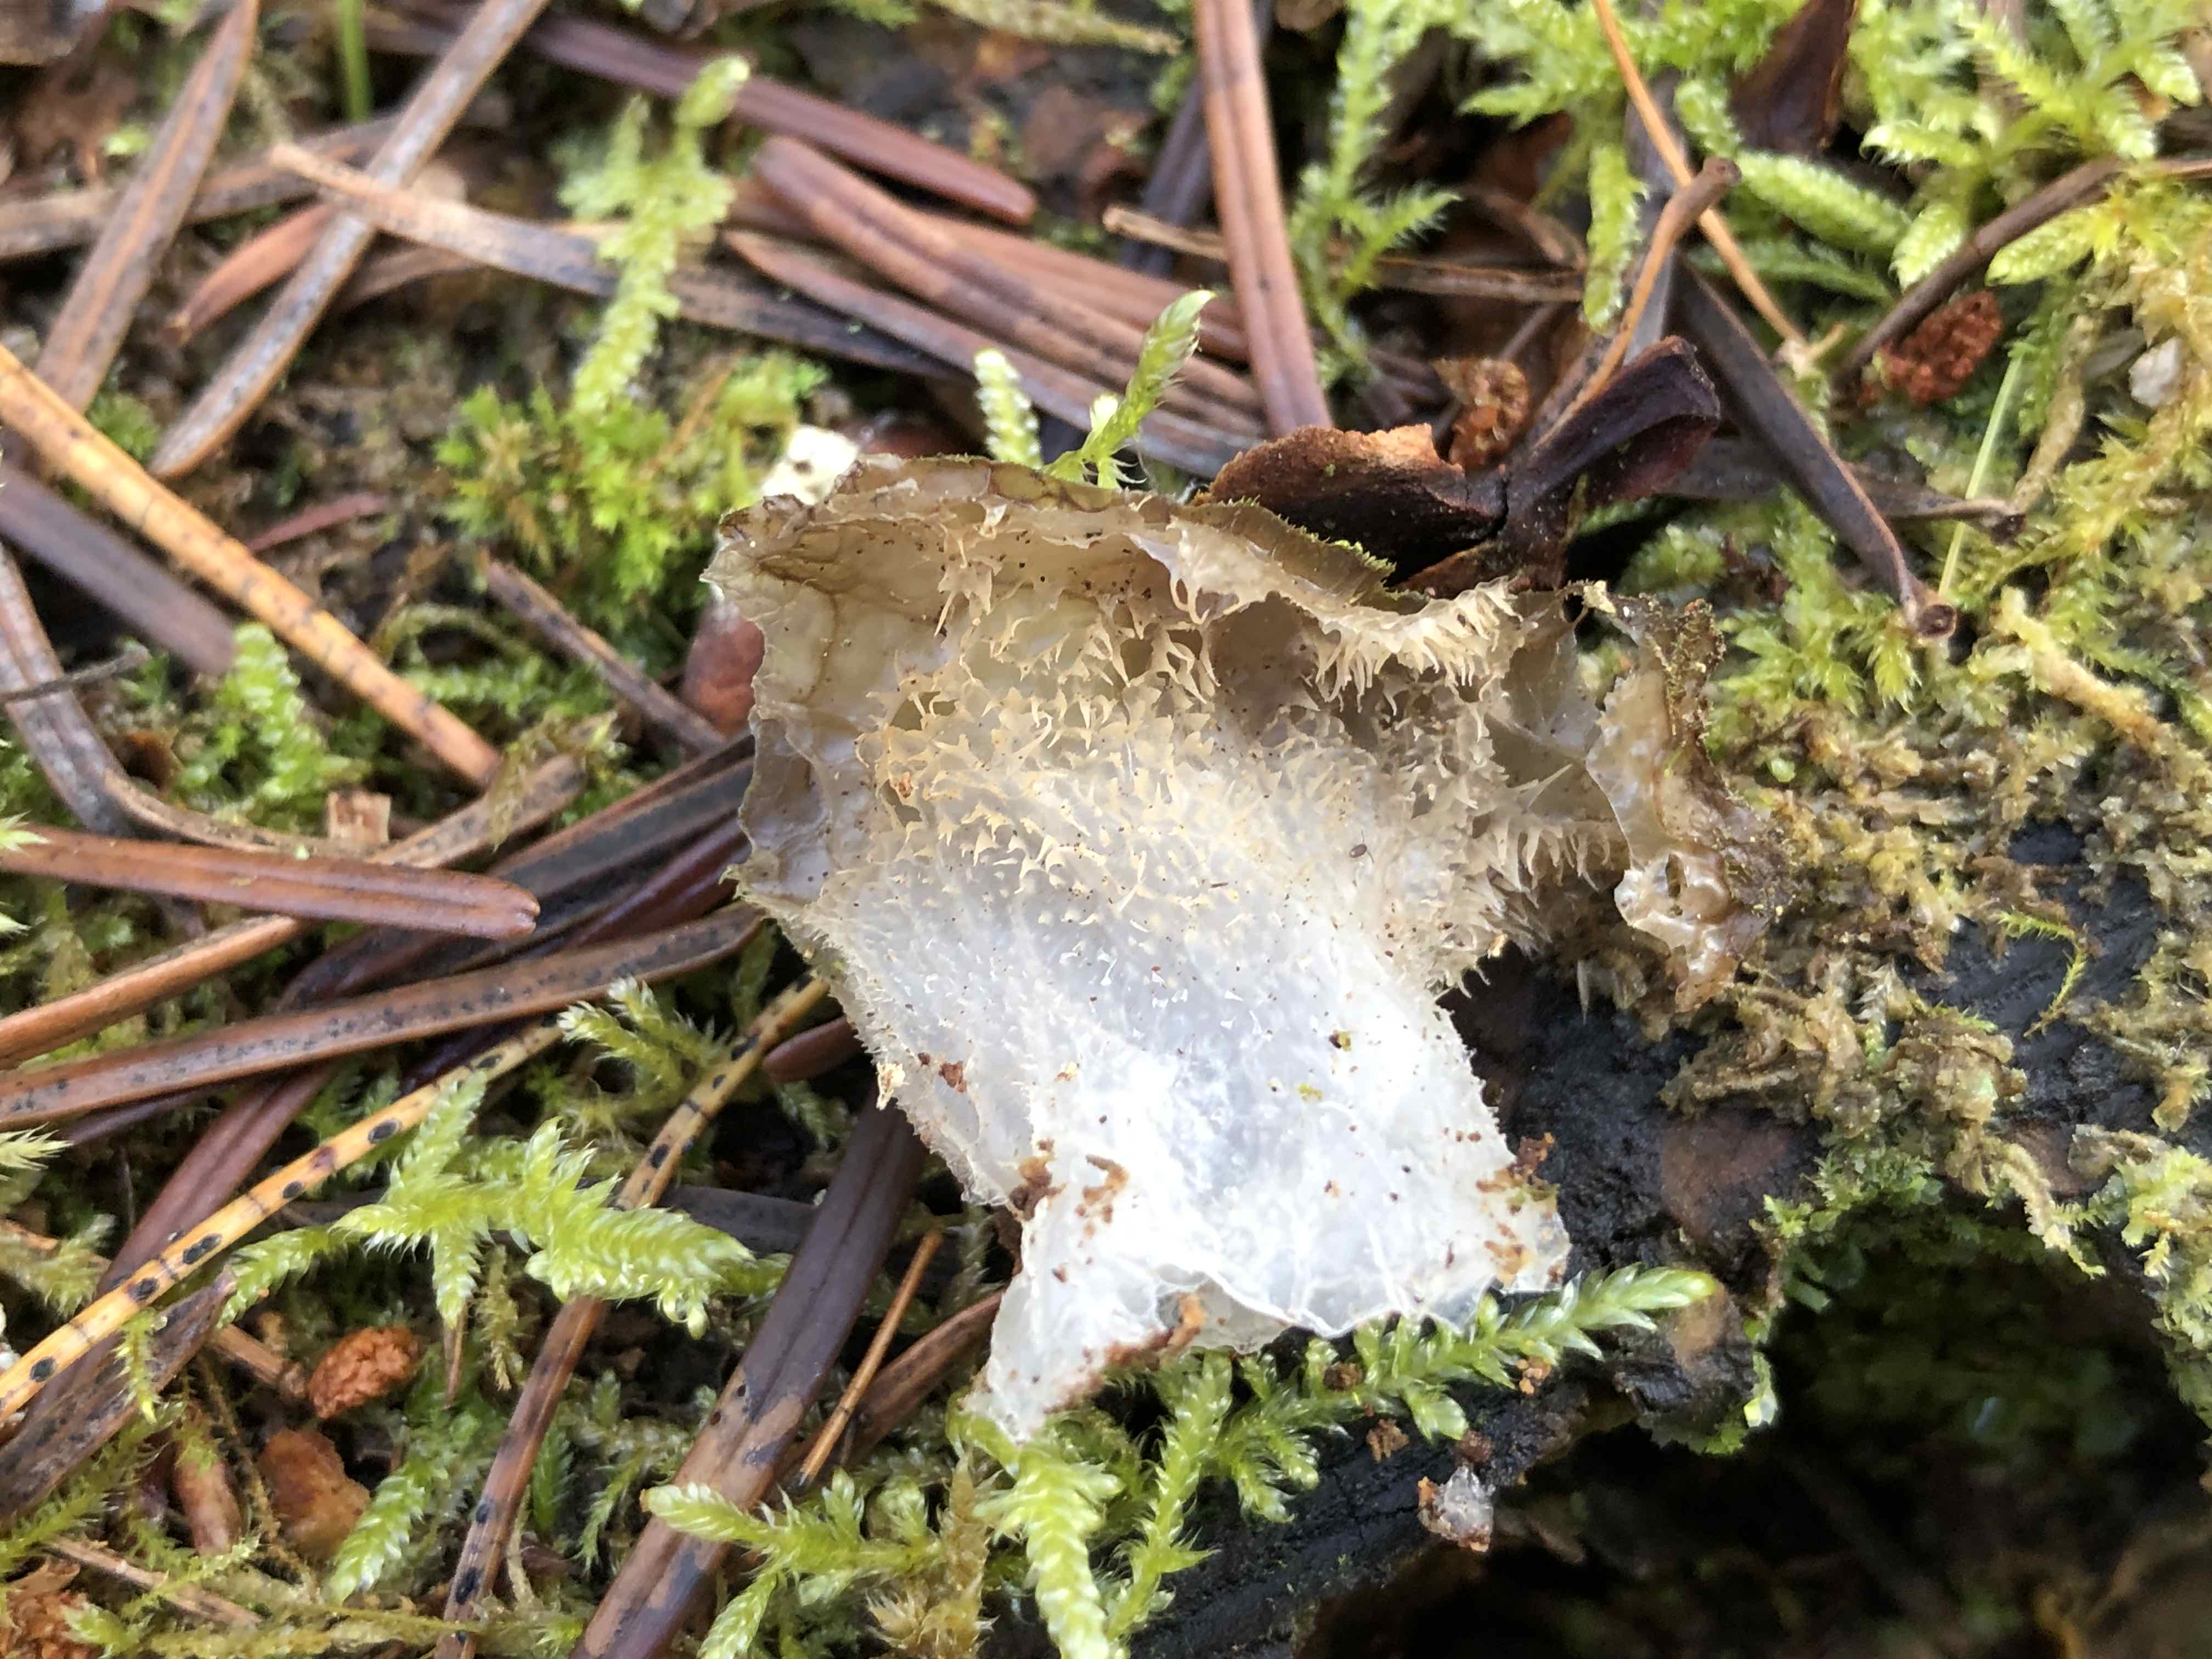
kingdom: Fungi
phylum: Basidiomycota
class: Agaricomycetes
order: Auriculariales
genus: Pseudohydnum
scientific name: Pseudohydnum gelatinosum
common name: bævretand
